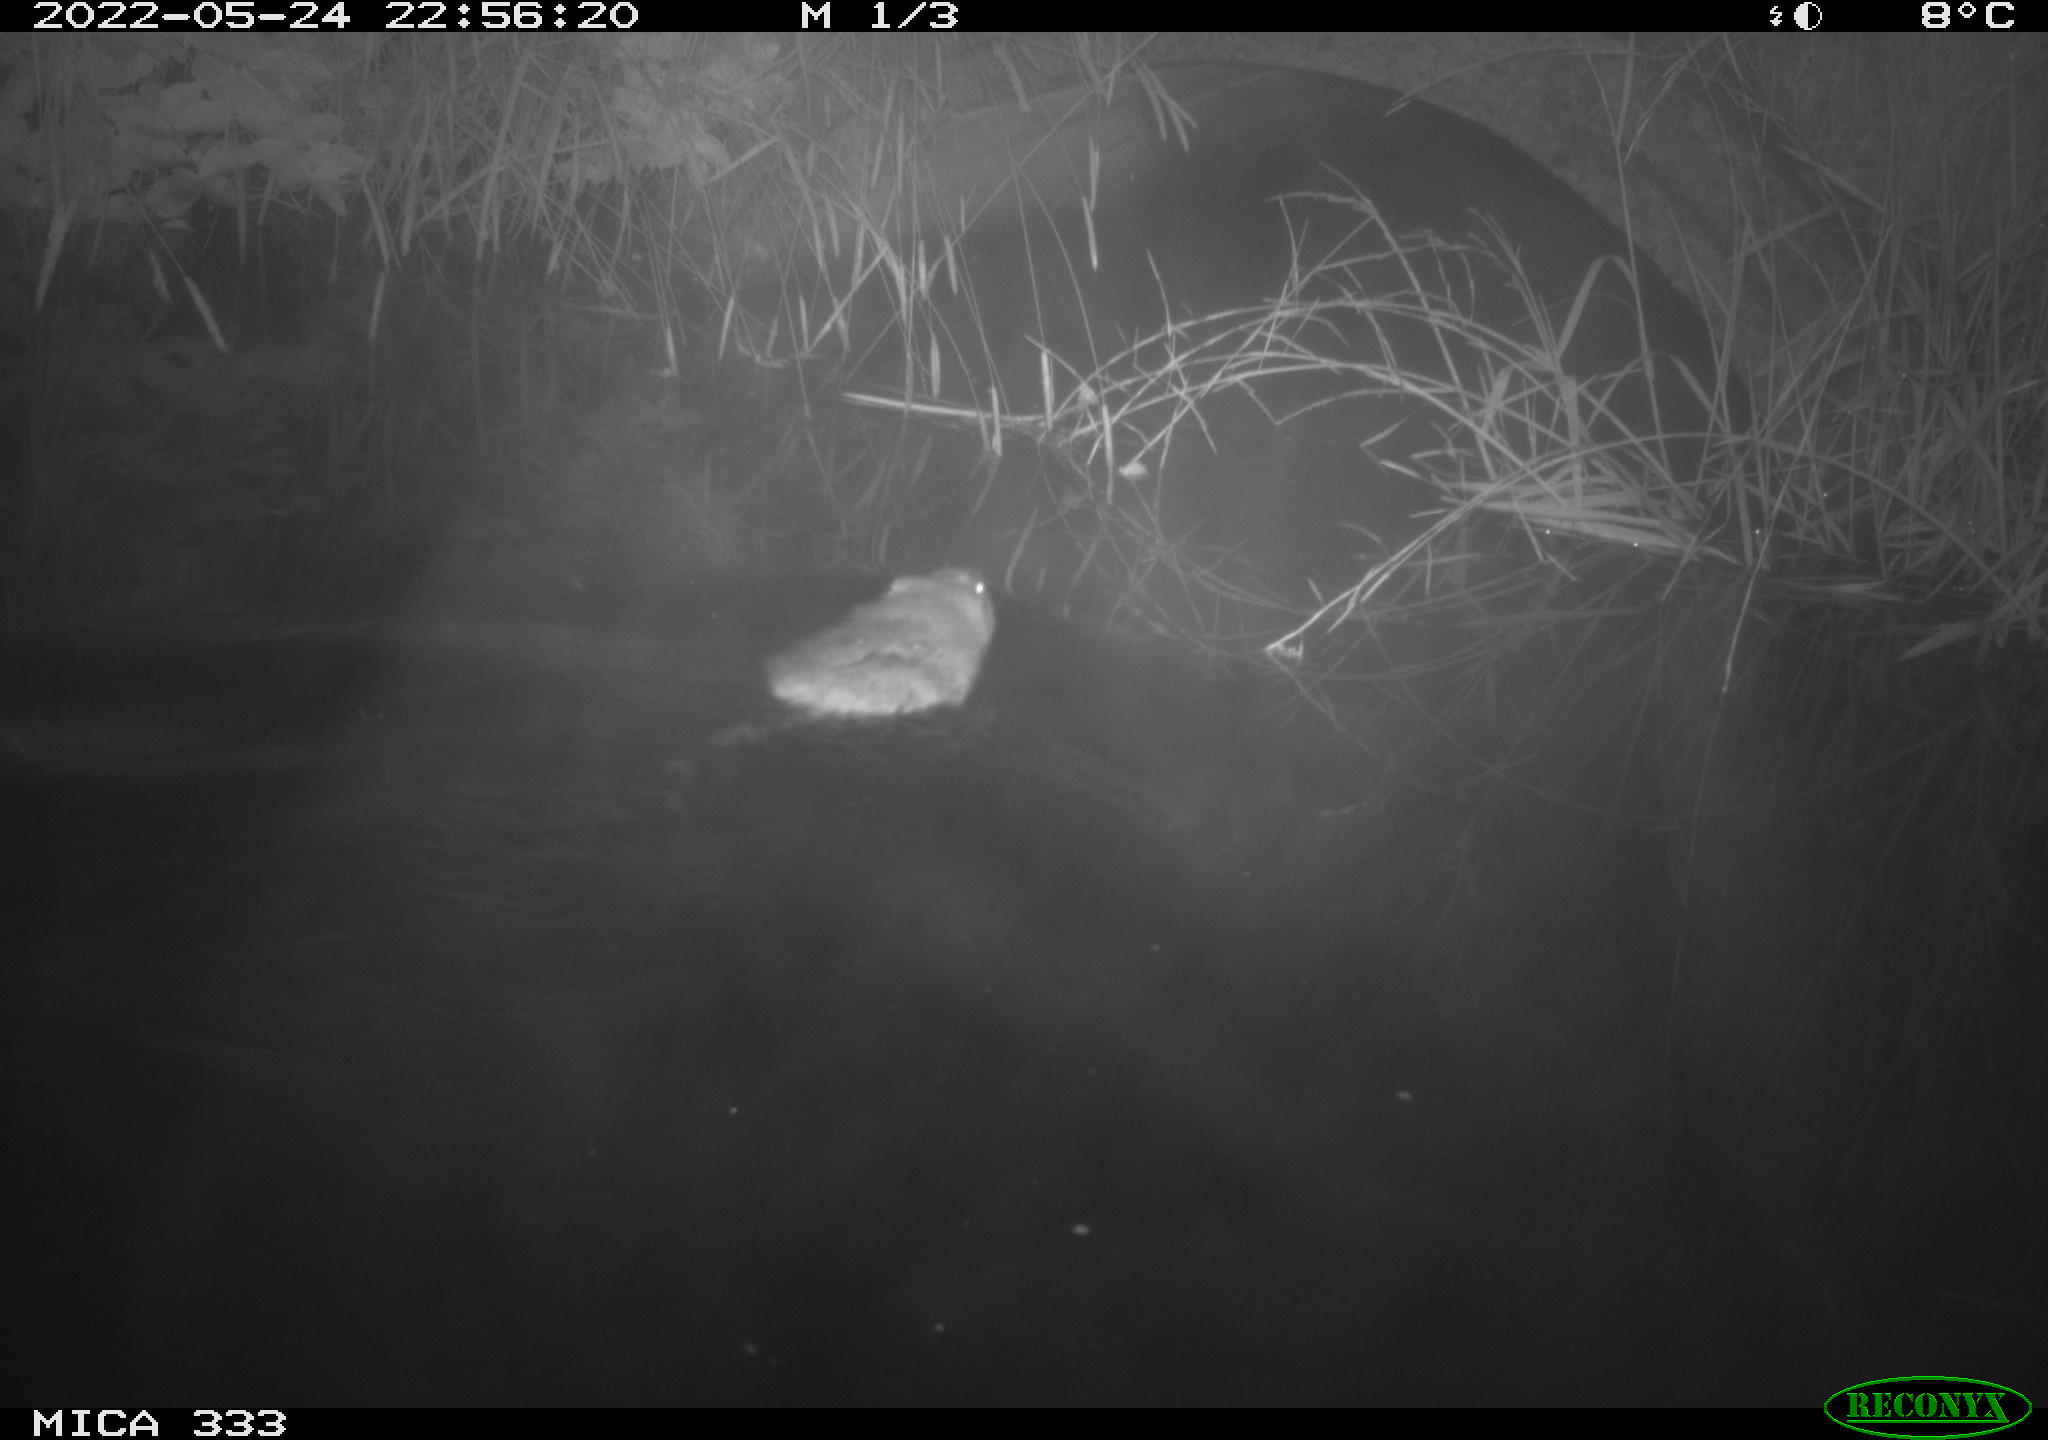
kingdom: Animalia
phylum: Chordata
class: Mammalia
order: Rodentia
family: Cricetidae
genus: Ondatra
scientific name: Ondatra zibethicus
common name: Muskrat
